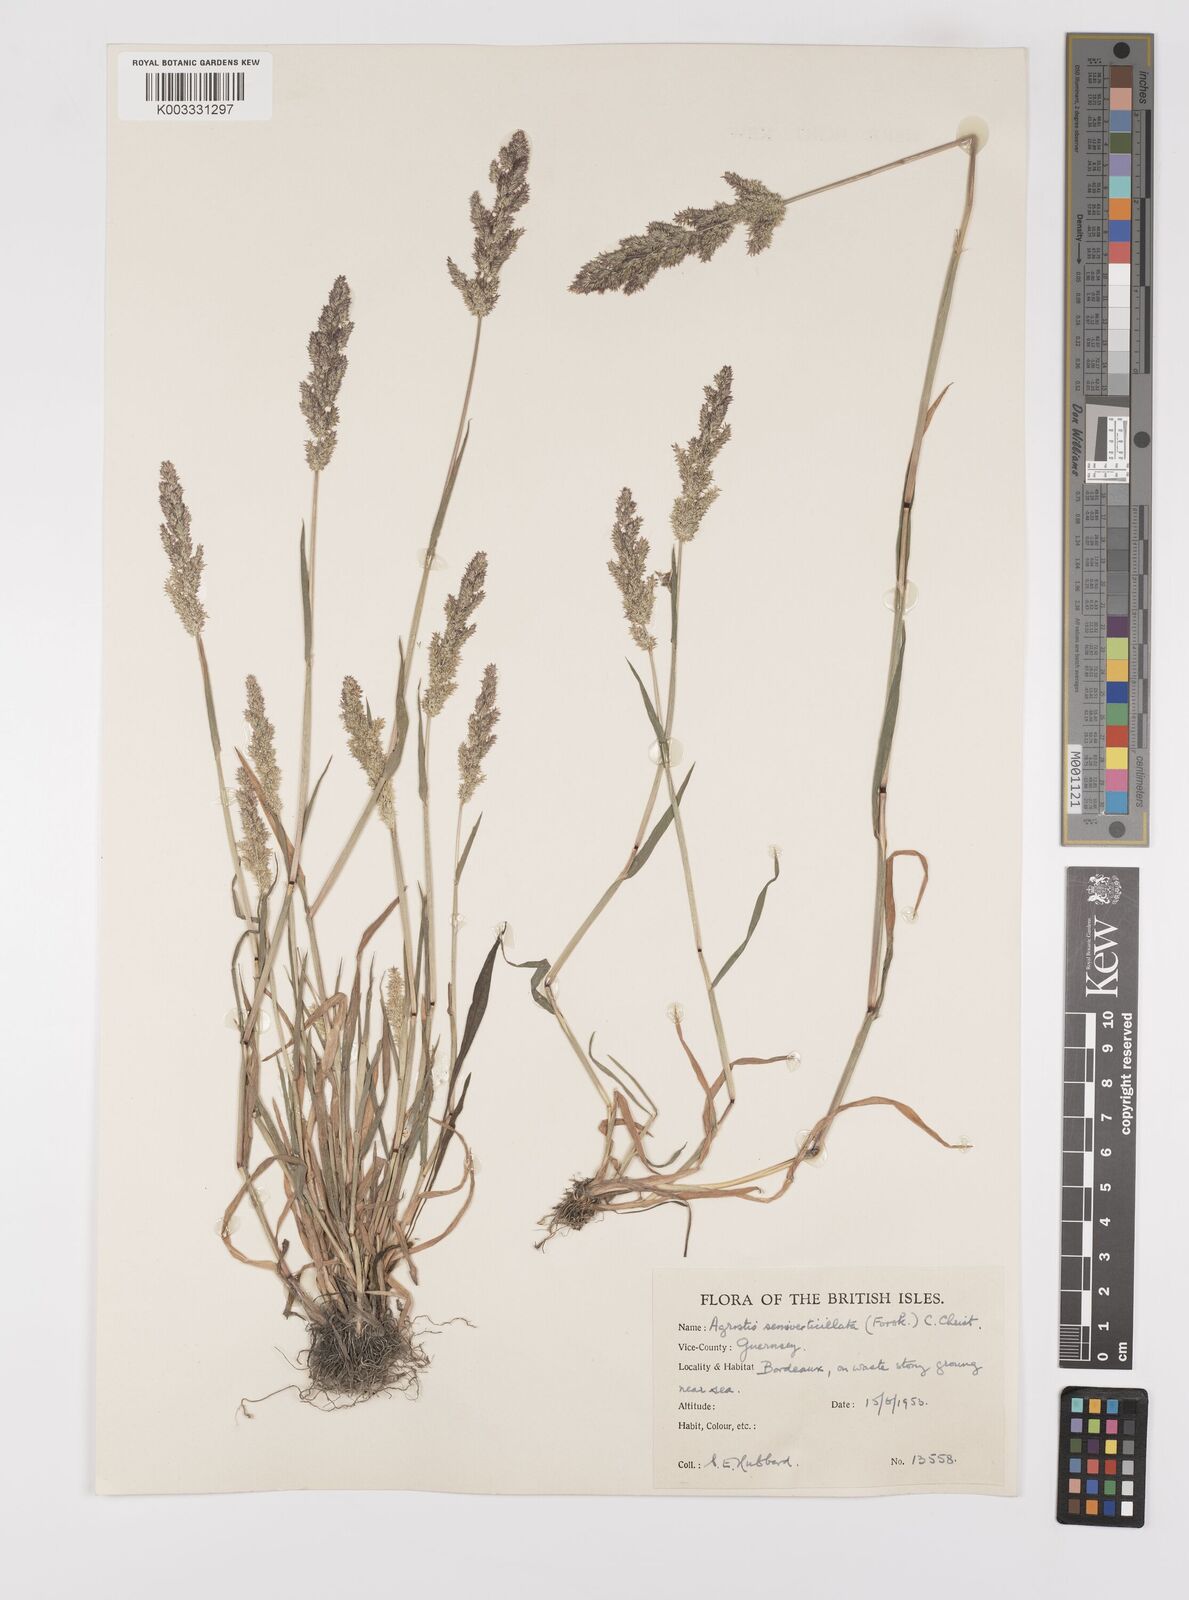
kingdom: Plantae
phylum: Tracheophyta
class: Liliopsida
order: Poales
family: Poaceae
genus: Polypogon
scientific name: Polypogon viridis
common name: Water bent
